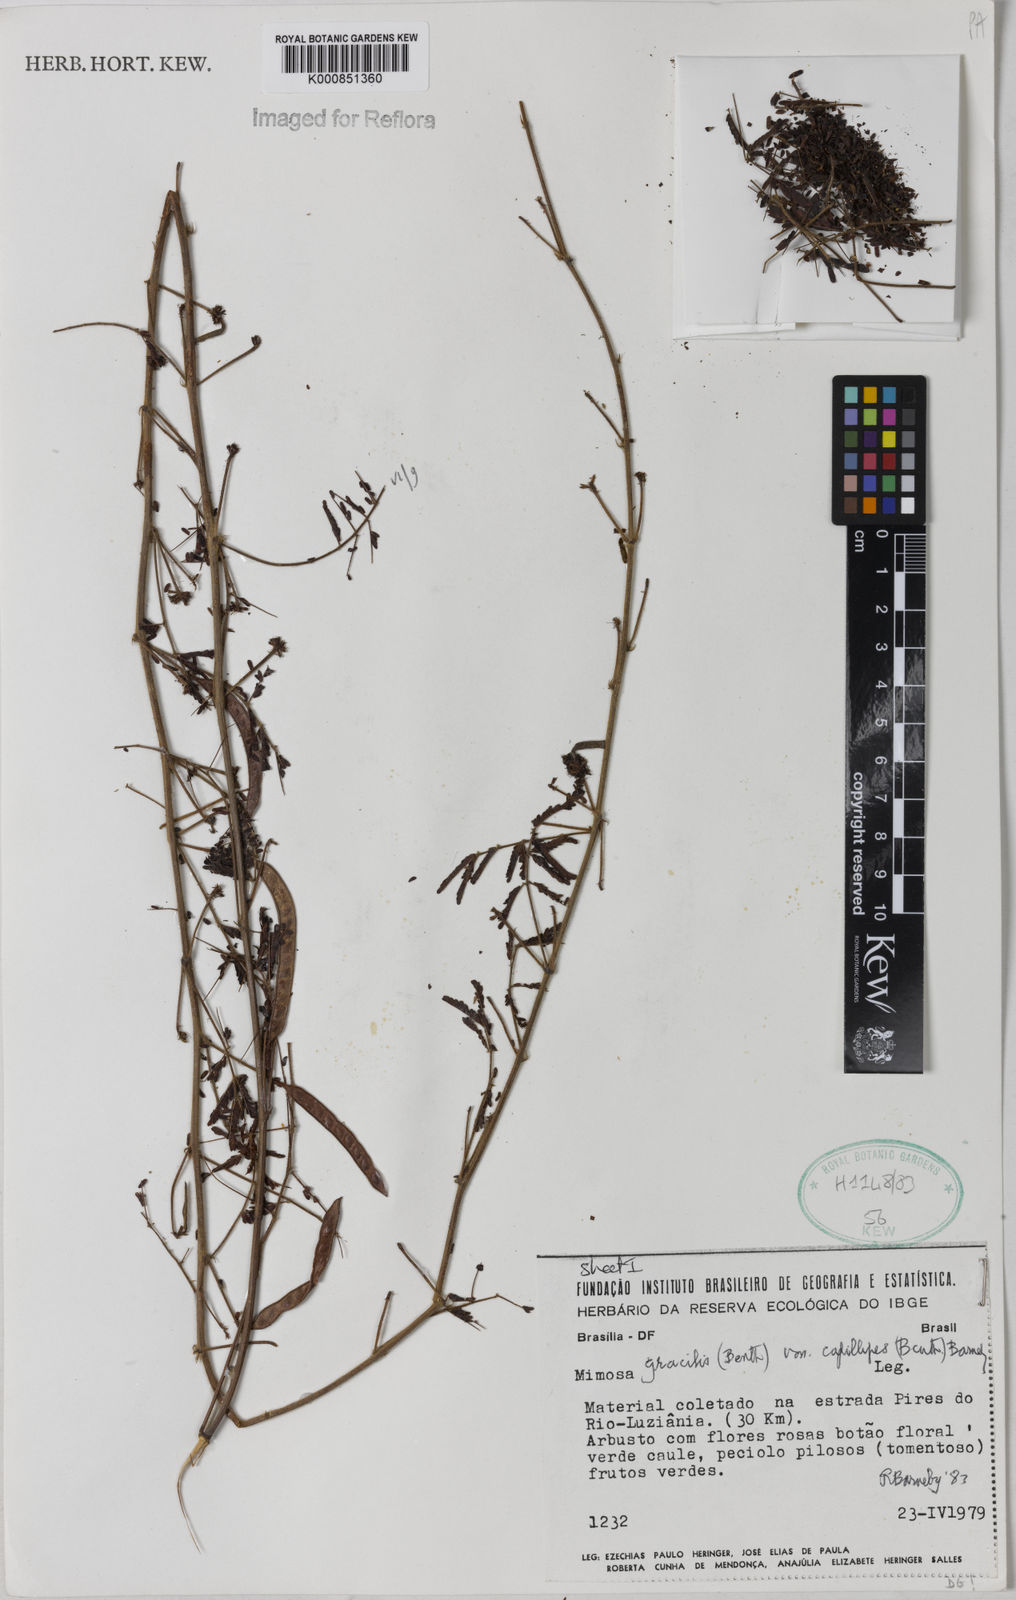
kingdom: Plantae
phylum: Tracheophyta
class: Magnoliopsida
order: Fabales
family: Fabaceae
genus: Mimosa
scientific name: Mimosa gracilis
